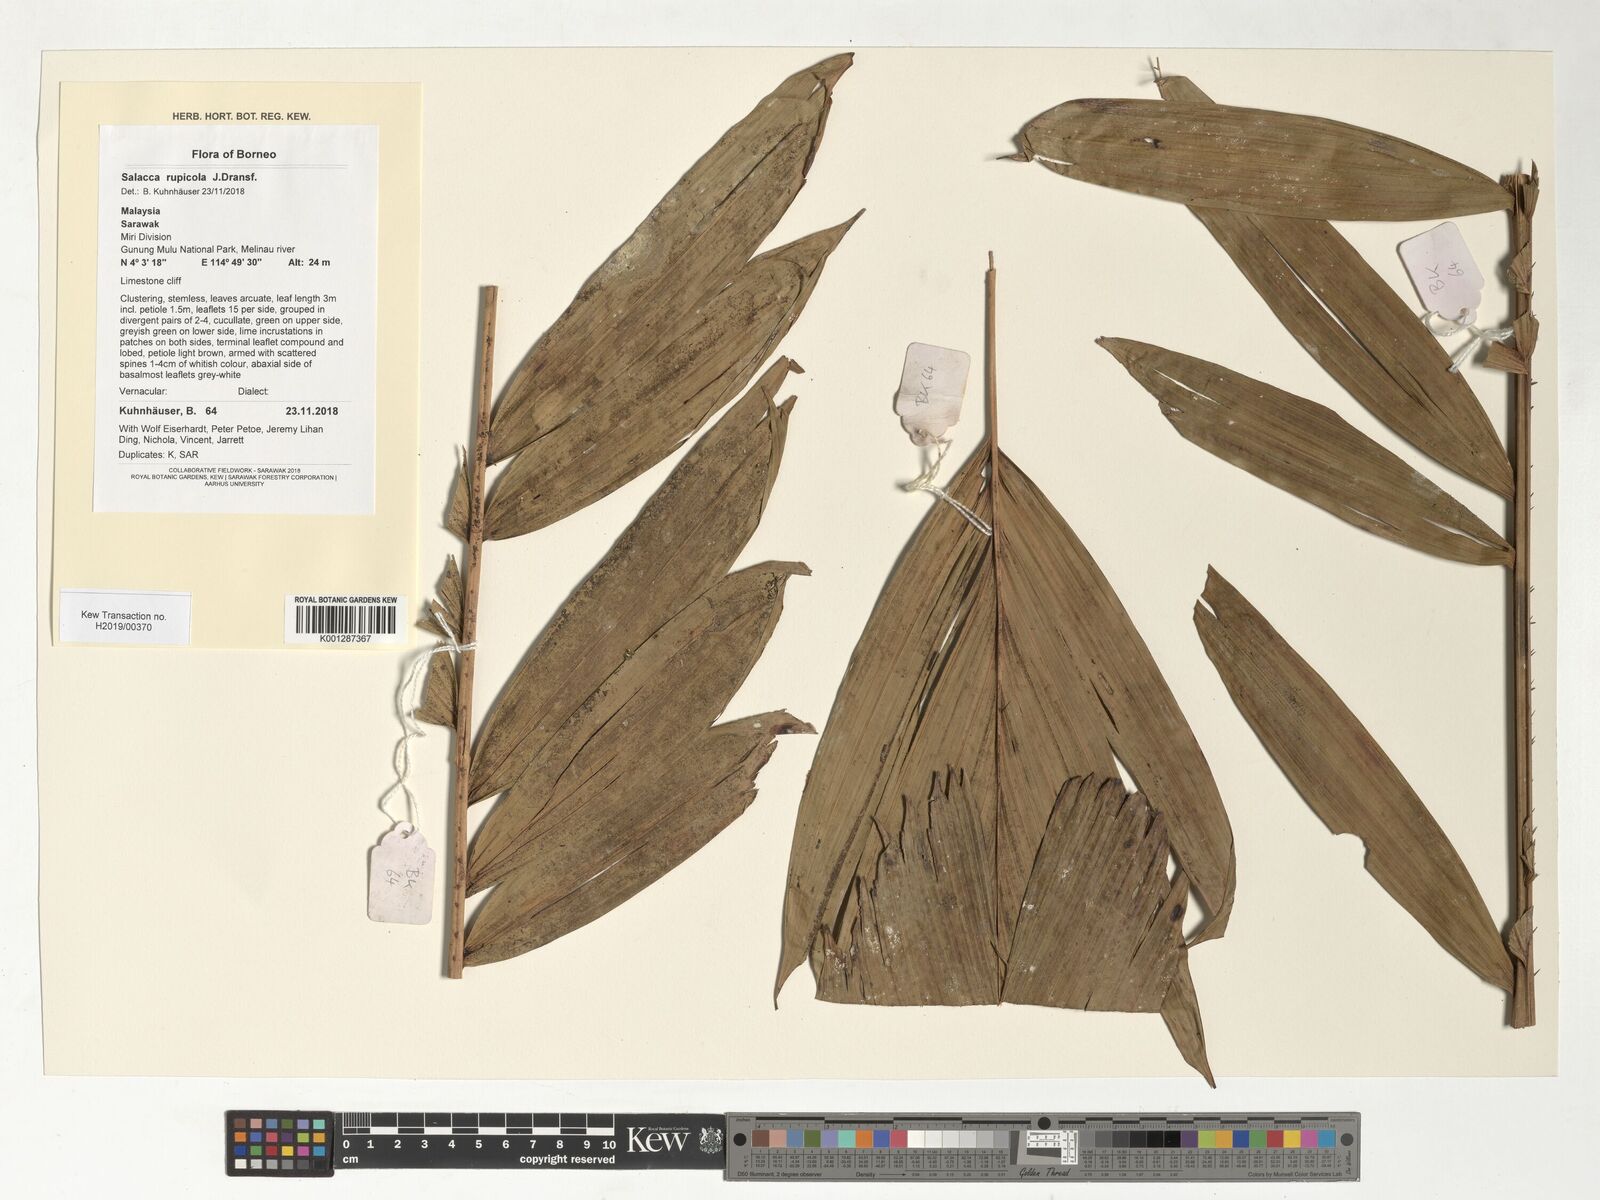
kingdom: Plantae
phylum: Tracheophyta
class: Liliopsida
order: Arecales
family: Arecaceae
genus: Salacca
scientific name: Salacca rupicola
